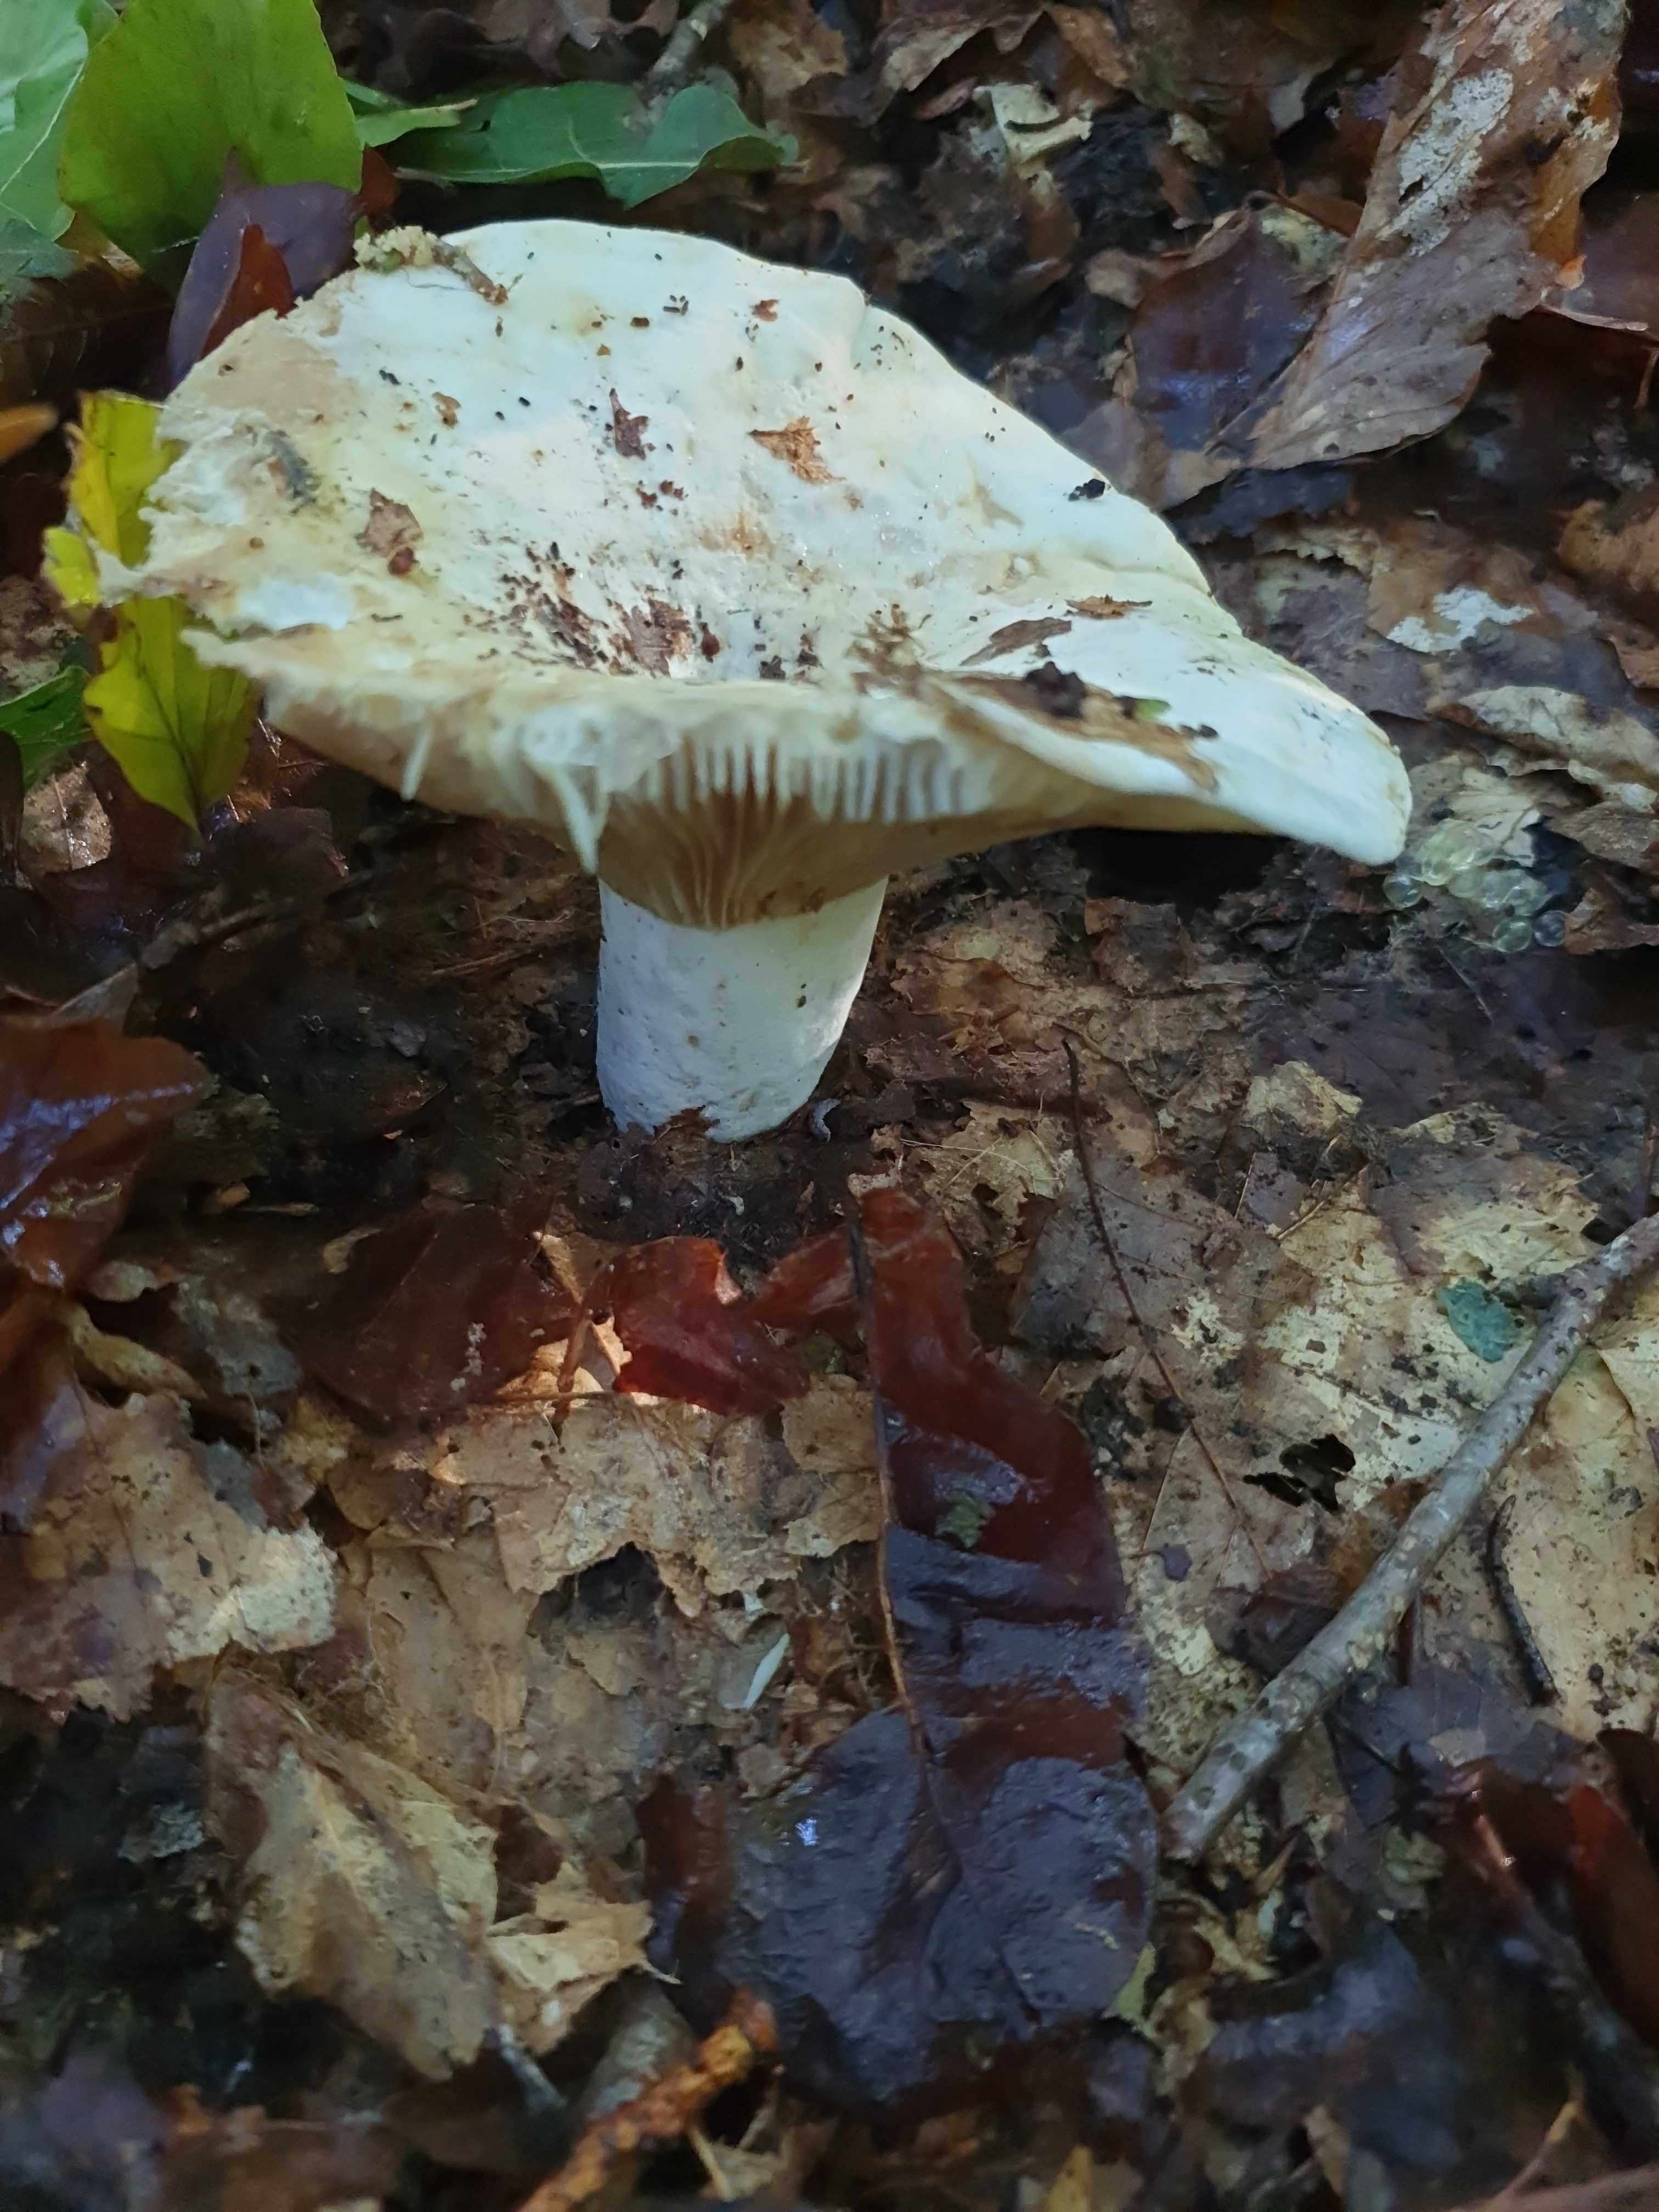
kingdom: Fungi
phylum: Basidiomycota
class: Agaricomycetes
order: Russulales
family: Russulaceae
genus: Lactifluus
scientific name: Lactifluus vellereus
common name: hvidfiltet mælkehat
